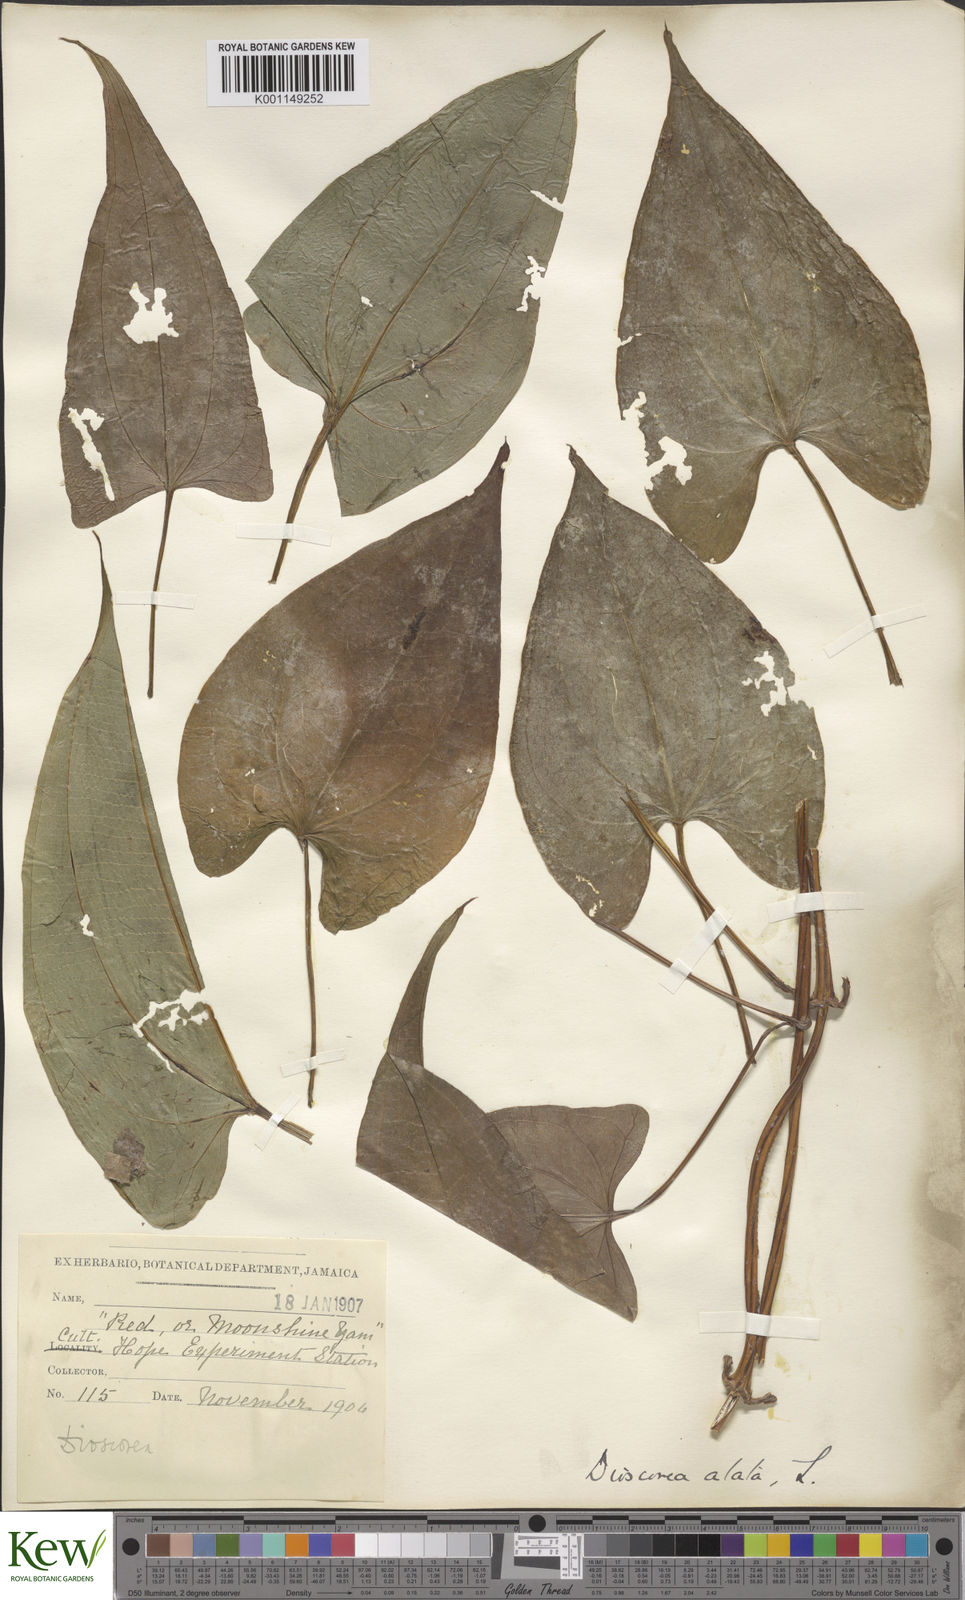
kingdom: Plantae
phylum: Tracheophyta
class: Liliopsida
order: Dioscoreales
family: Dioscoreaceae
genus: Dioscorea
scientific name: Dioscorea alata
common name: Water yam
